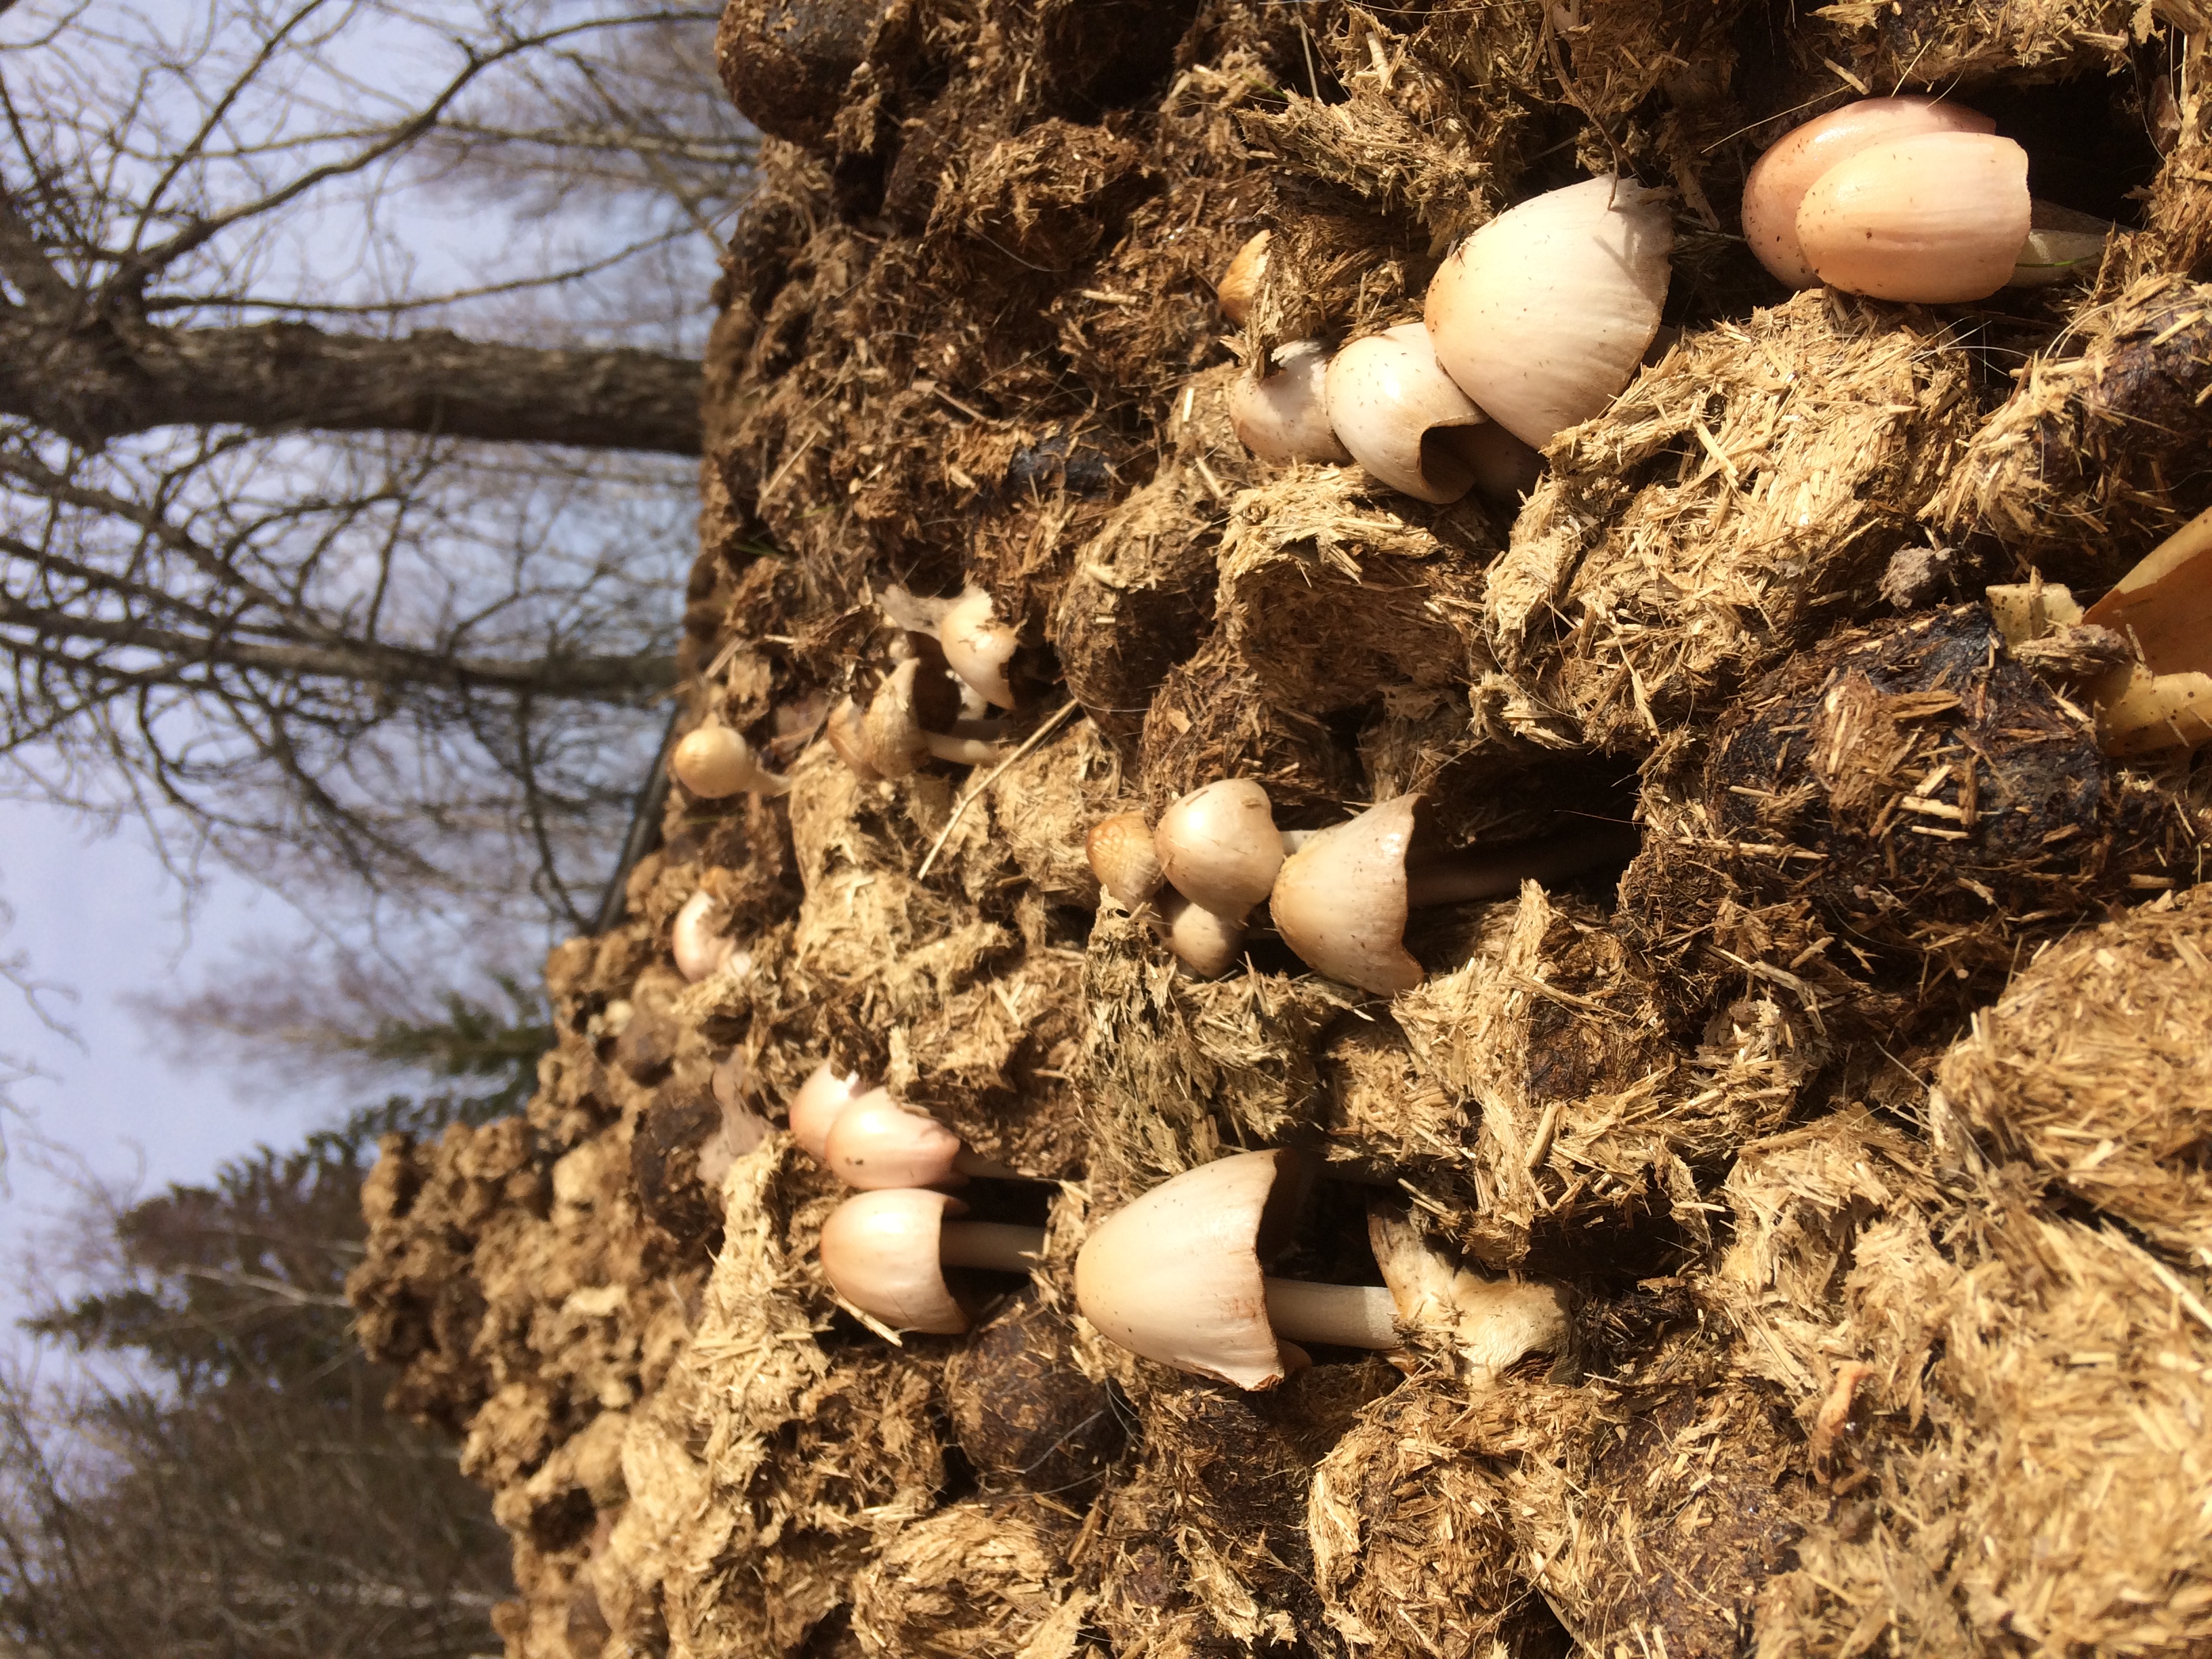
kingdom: Fungi
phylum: Basidiomycota
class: Agaricomycetes
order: Agaricales
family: Bolbitiaceae
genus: Bolbitius
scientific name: Bolbitius coprophilus
